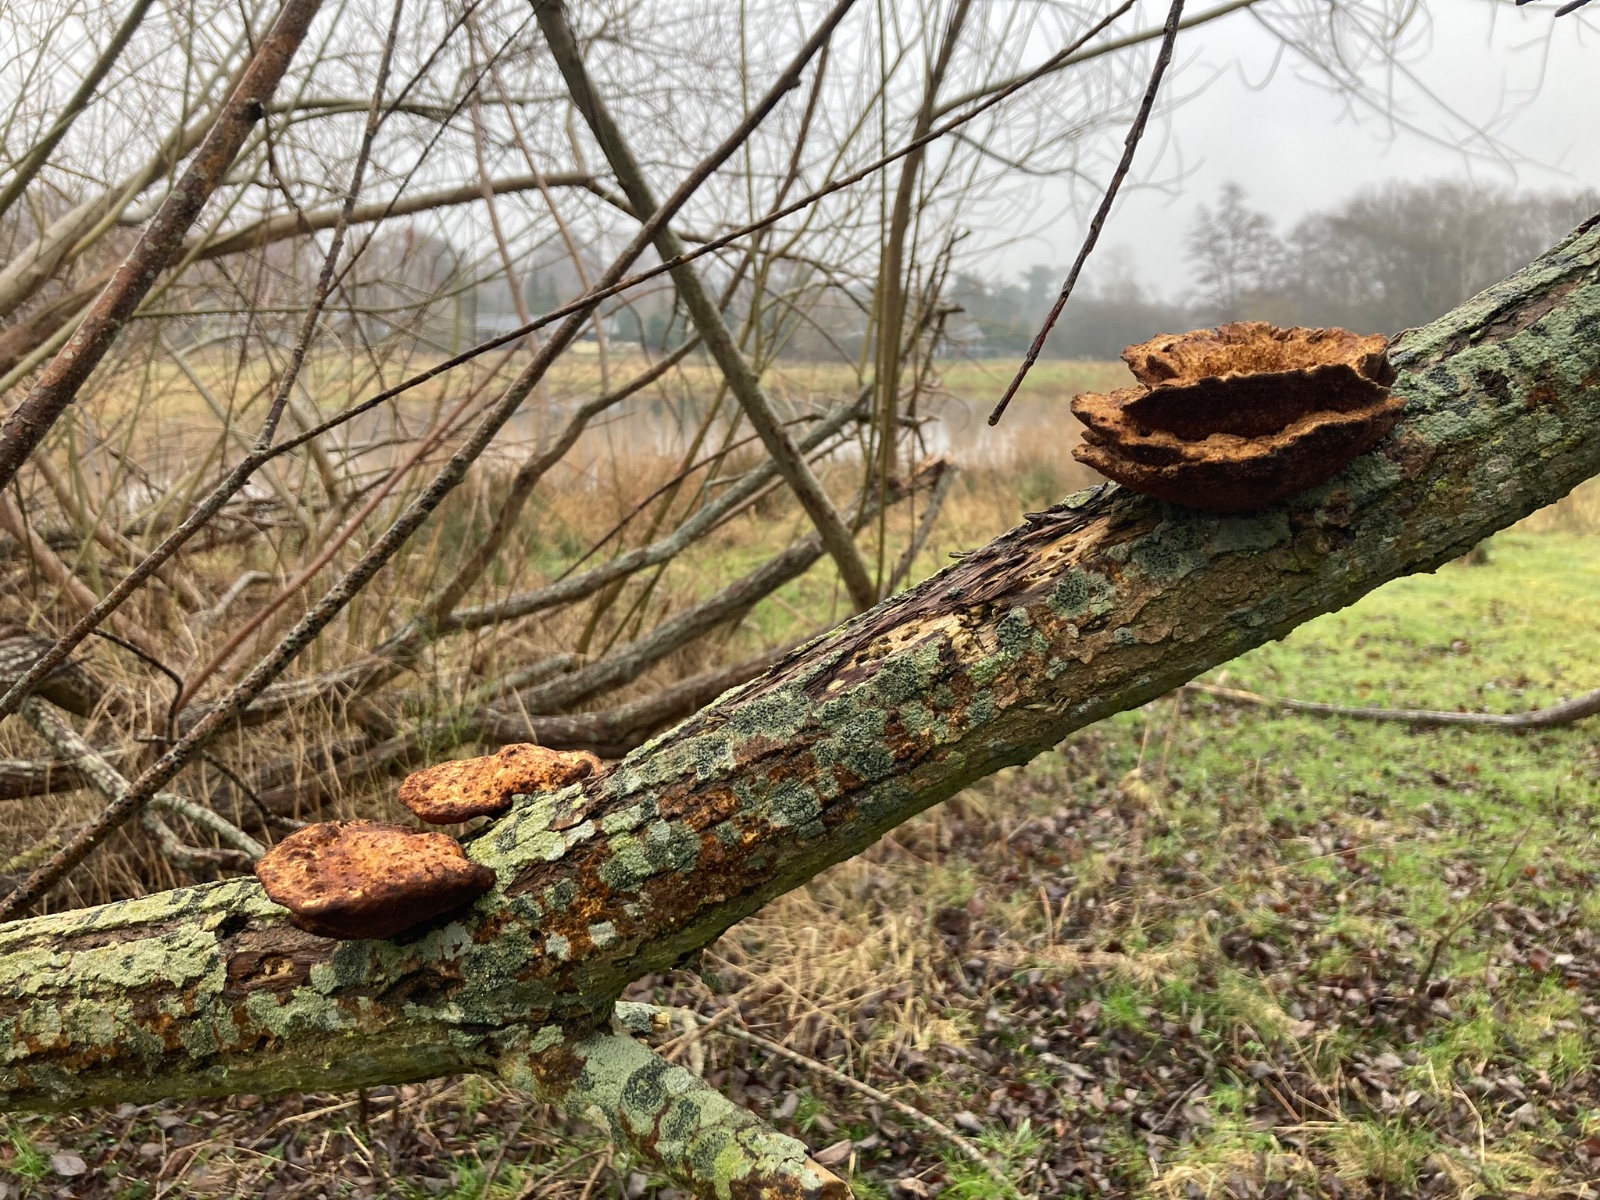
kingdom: Fungi
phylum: Basidiomycota
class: Agaricomycetes
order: Polyporales
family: Polyporaceae
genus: Daedaleopsis
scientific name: Daedaleopsis confragosa
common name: rødmende læderporesvamp
